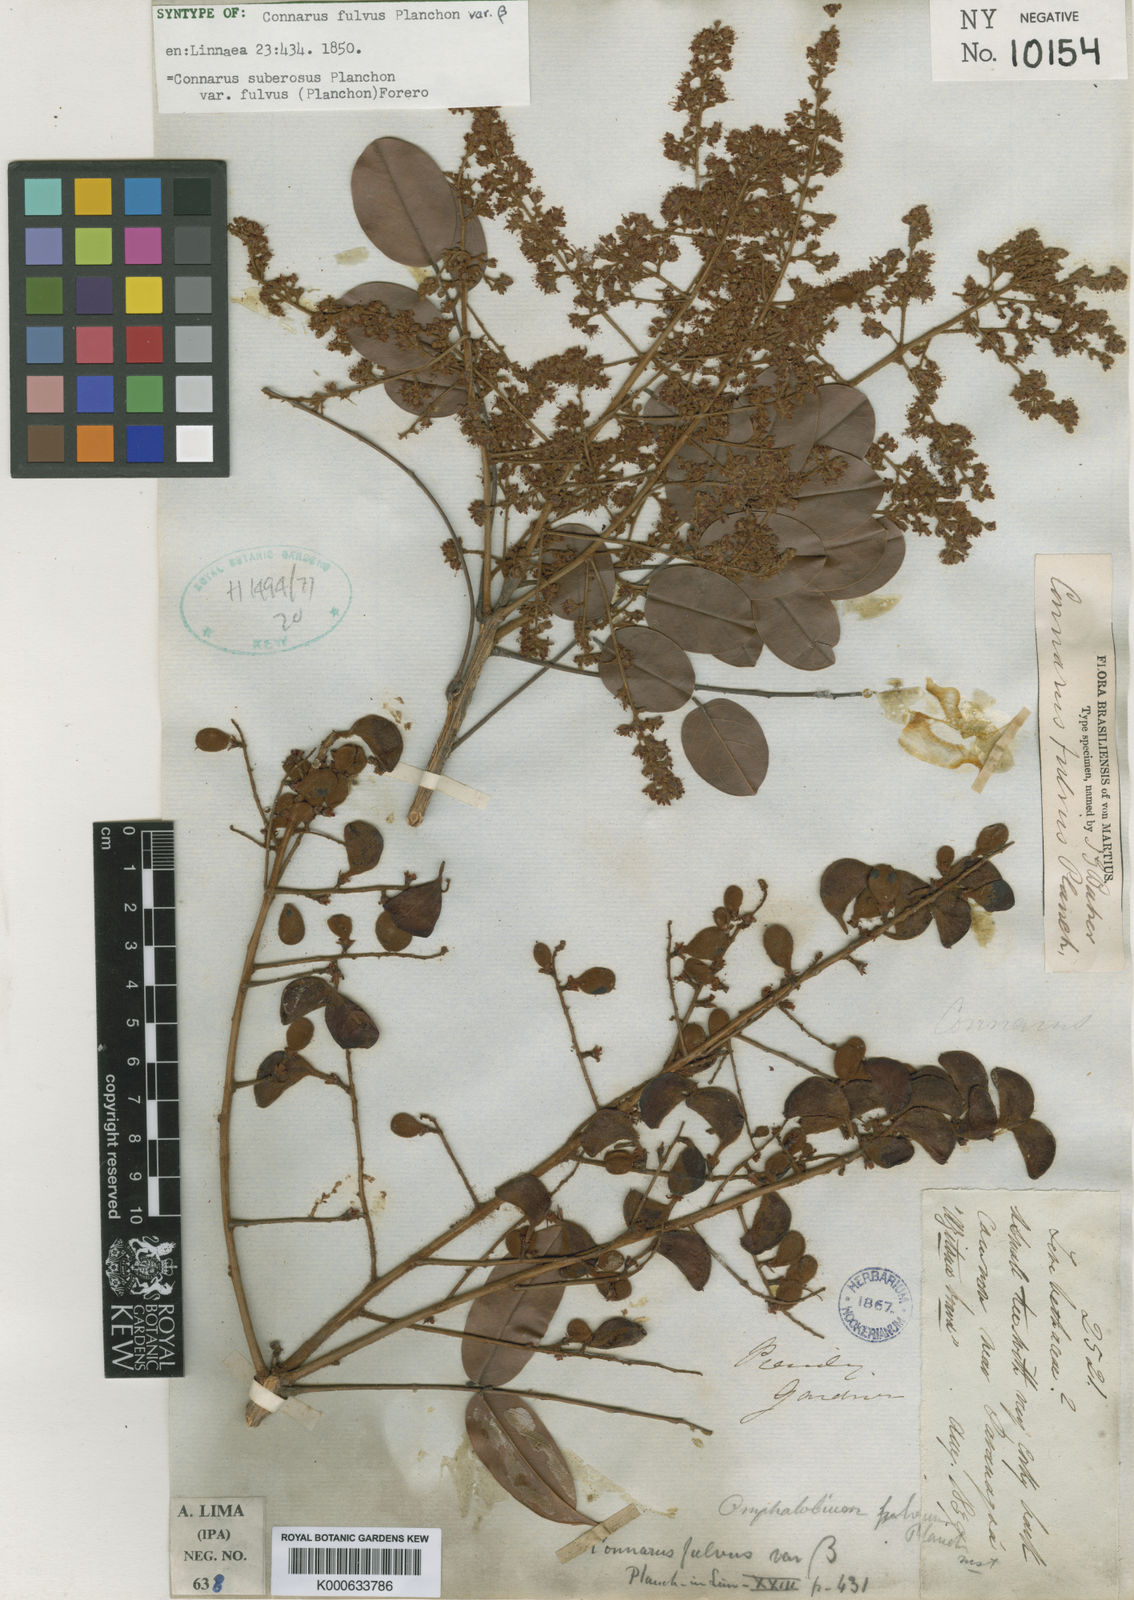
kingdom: Plantae
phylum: Tracheophyta
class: Magnoliopsida
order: Oxalidales
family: Connaraceae
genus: Connarus
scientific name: Connarus suberosus
